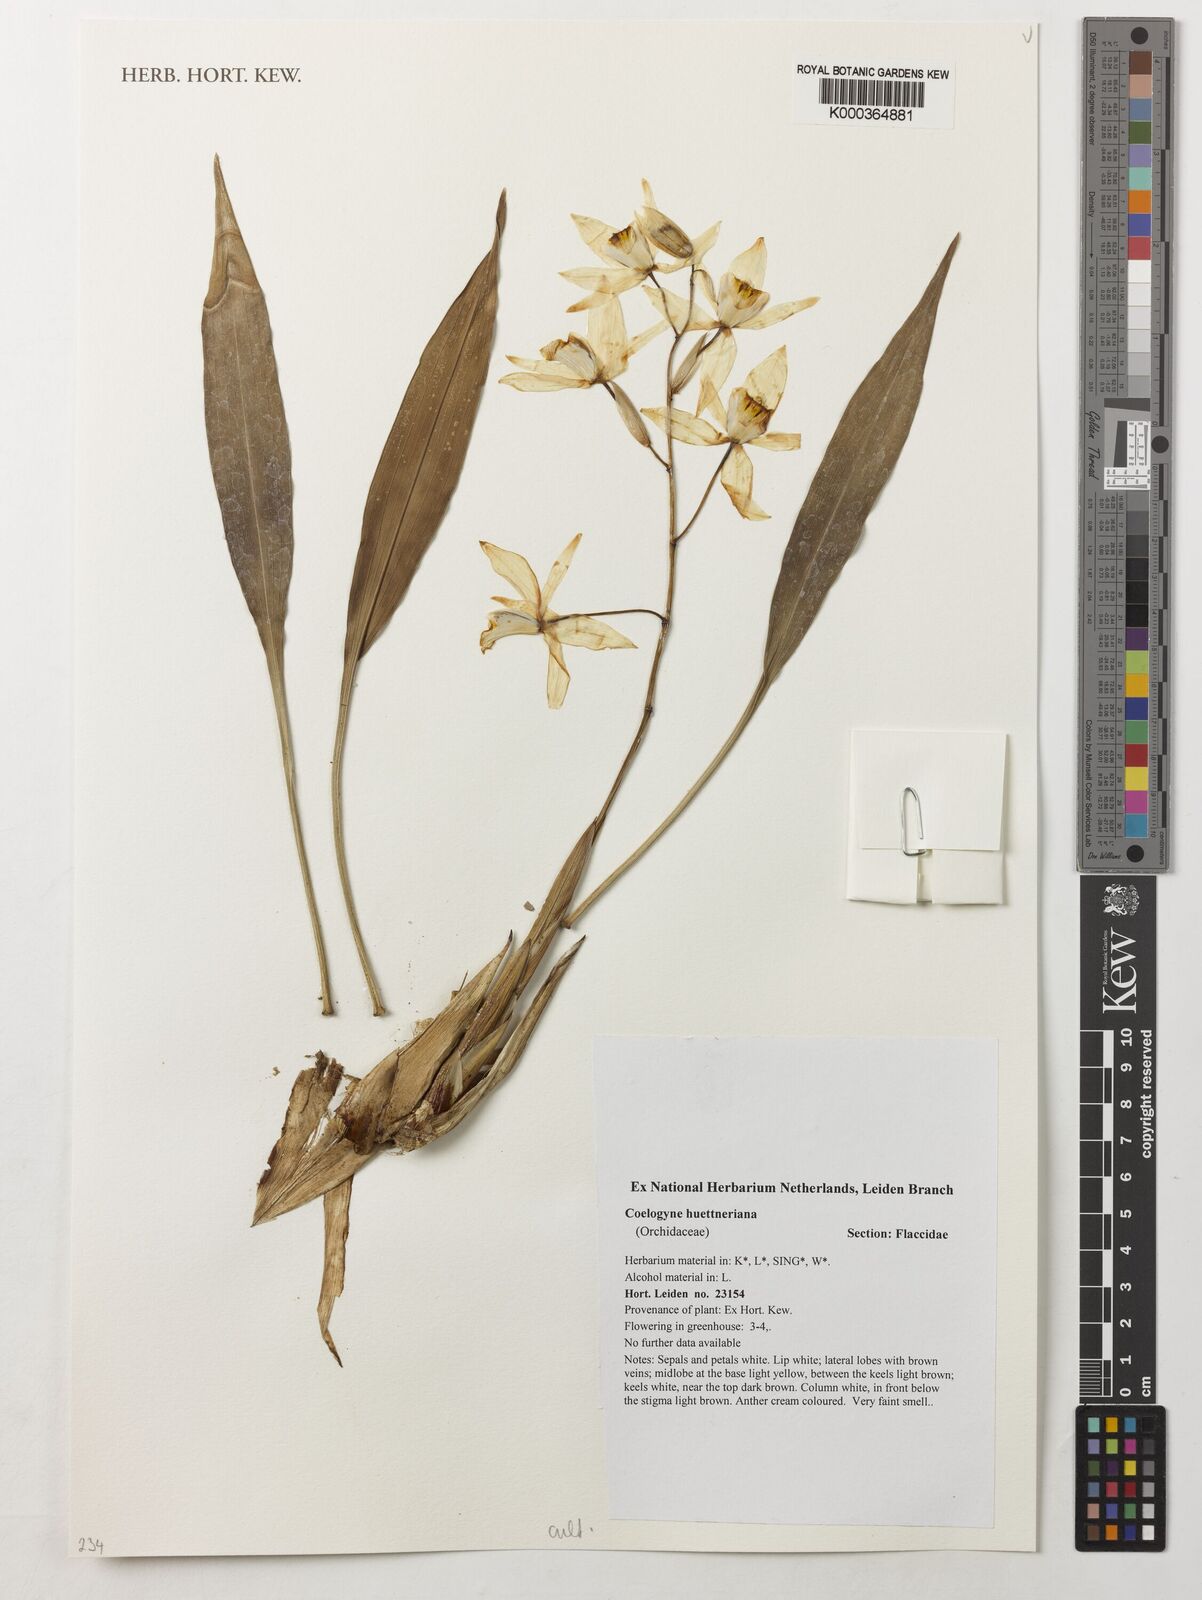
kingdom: Plantae
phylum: Tracheophyta
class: Liliopsida
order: Asparagales
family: Orchidaceae
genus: Coelogyne
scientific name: Coelogyne huettneriana
